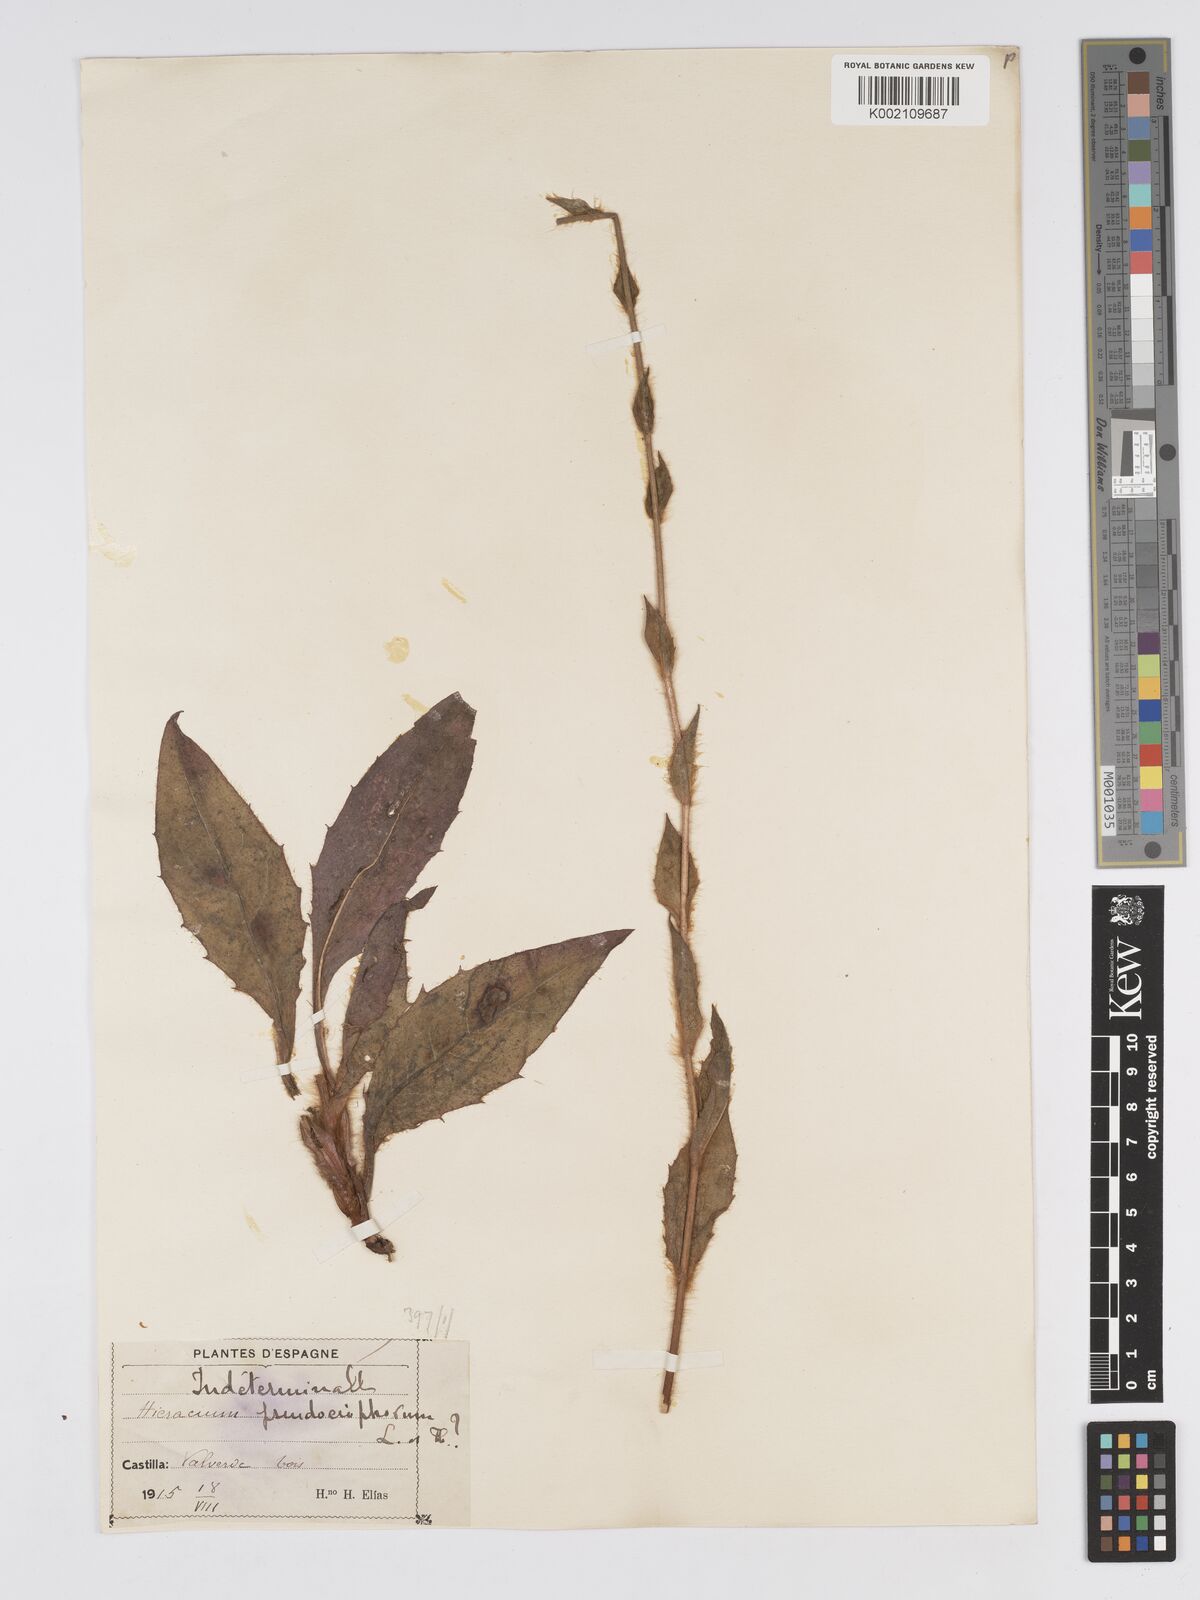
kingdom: Plantae
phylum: Tracheophyta
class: Magnoliopsida
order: Asterales
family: Asteraceae
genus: Hieracium
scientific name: Hieracium nobile
